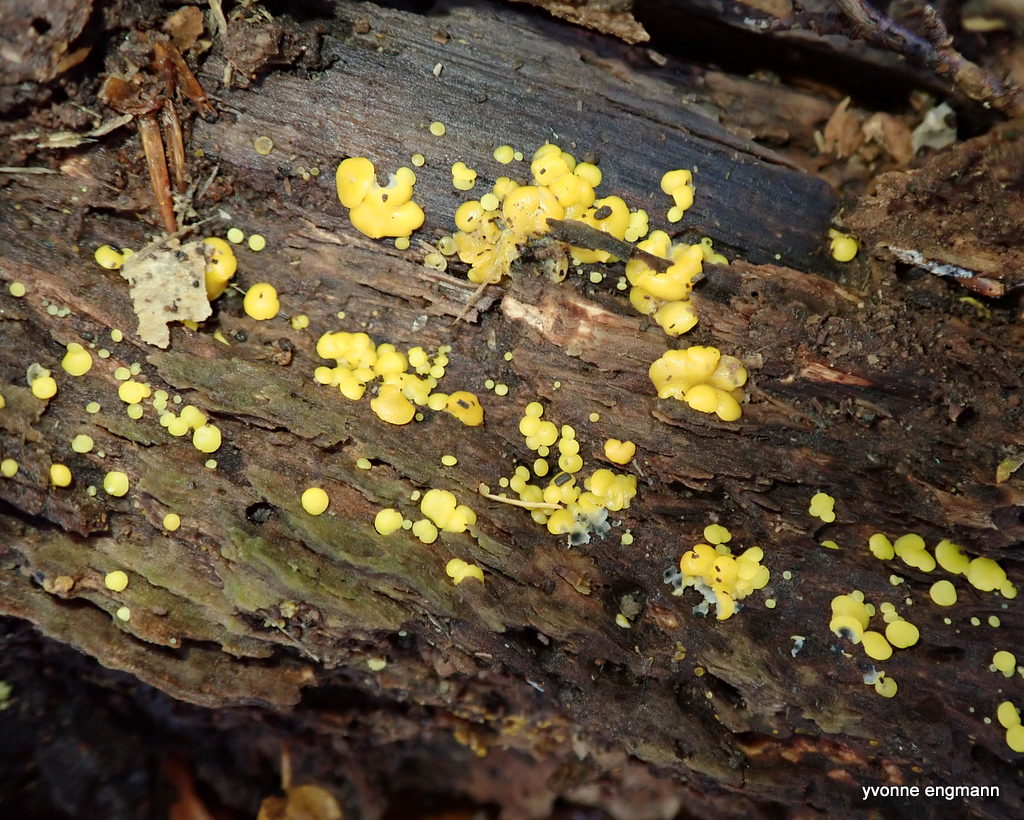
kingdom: Fungi
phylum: Ascomycota
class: Leotiomycetes
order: Helotiales
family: Pezizellaceae
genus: Calycina
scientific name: Calycina citrina
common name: almindelig gulskive
